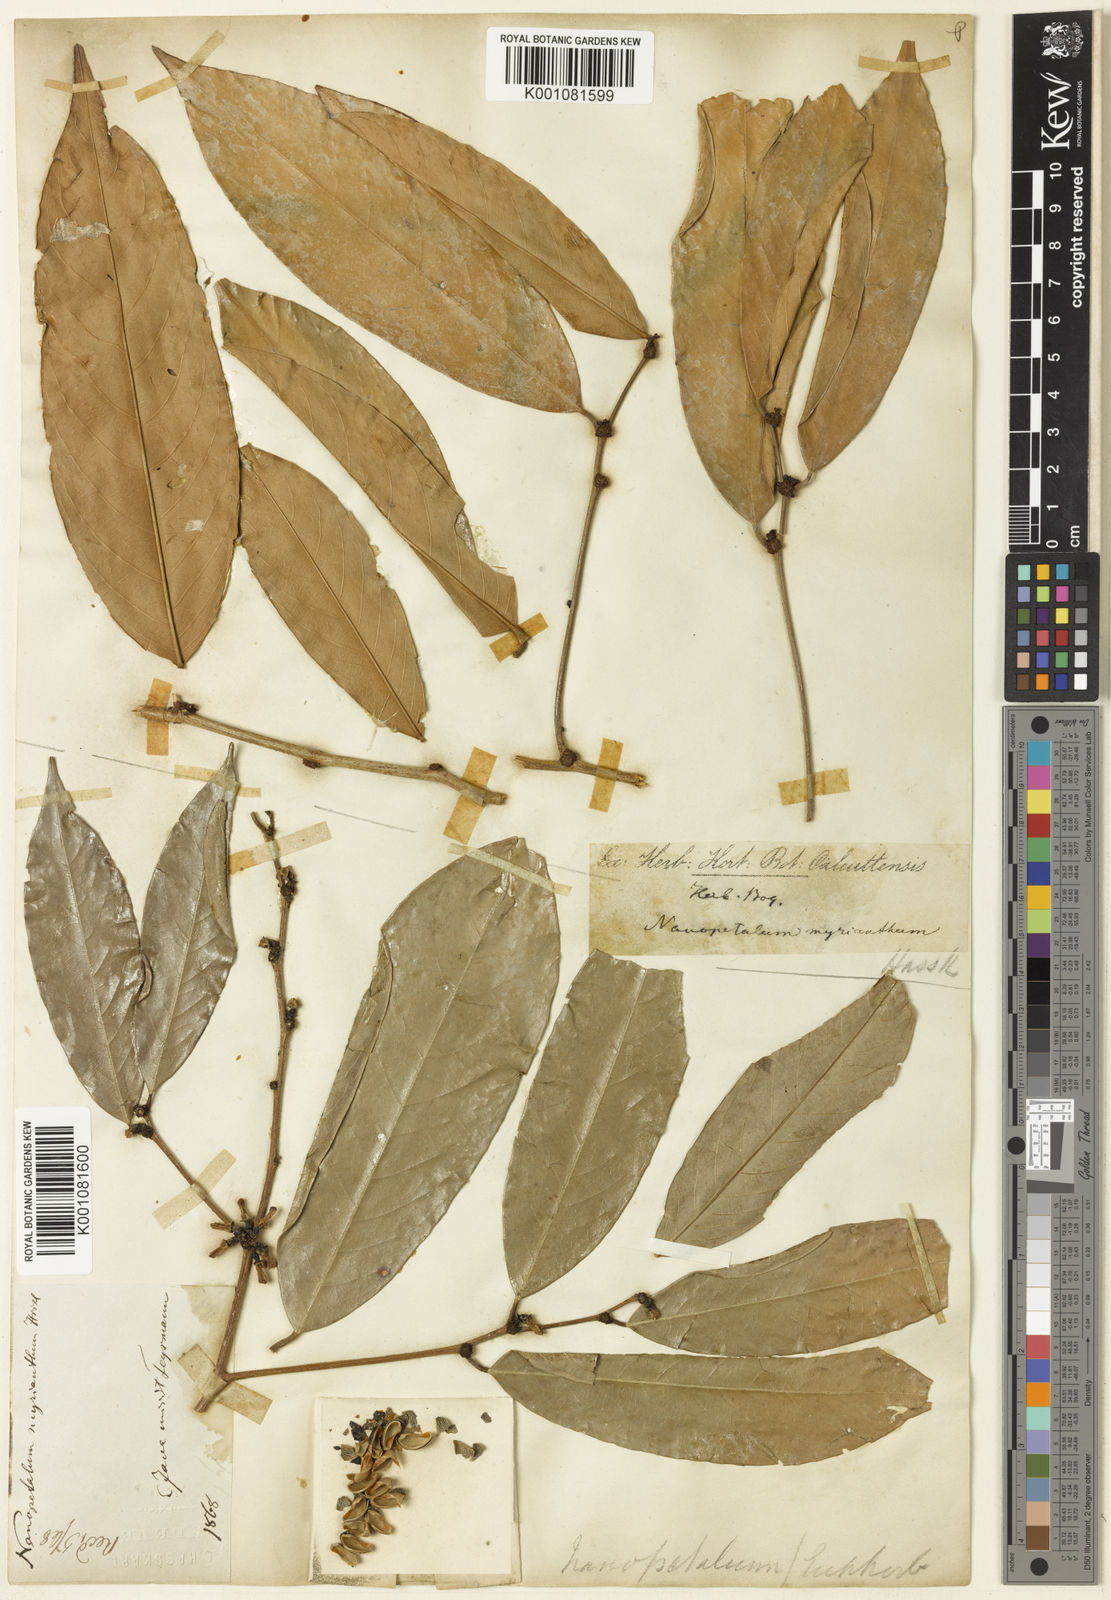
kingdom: Plantae
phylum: Tracheophyta
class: Magnoliopsida
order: Malpighiales
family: Phyllanthaceae
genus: Cleistanthus
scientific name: Cleistanthus oblongifolius
